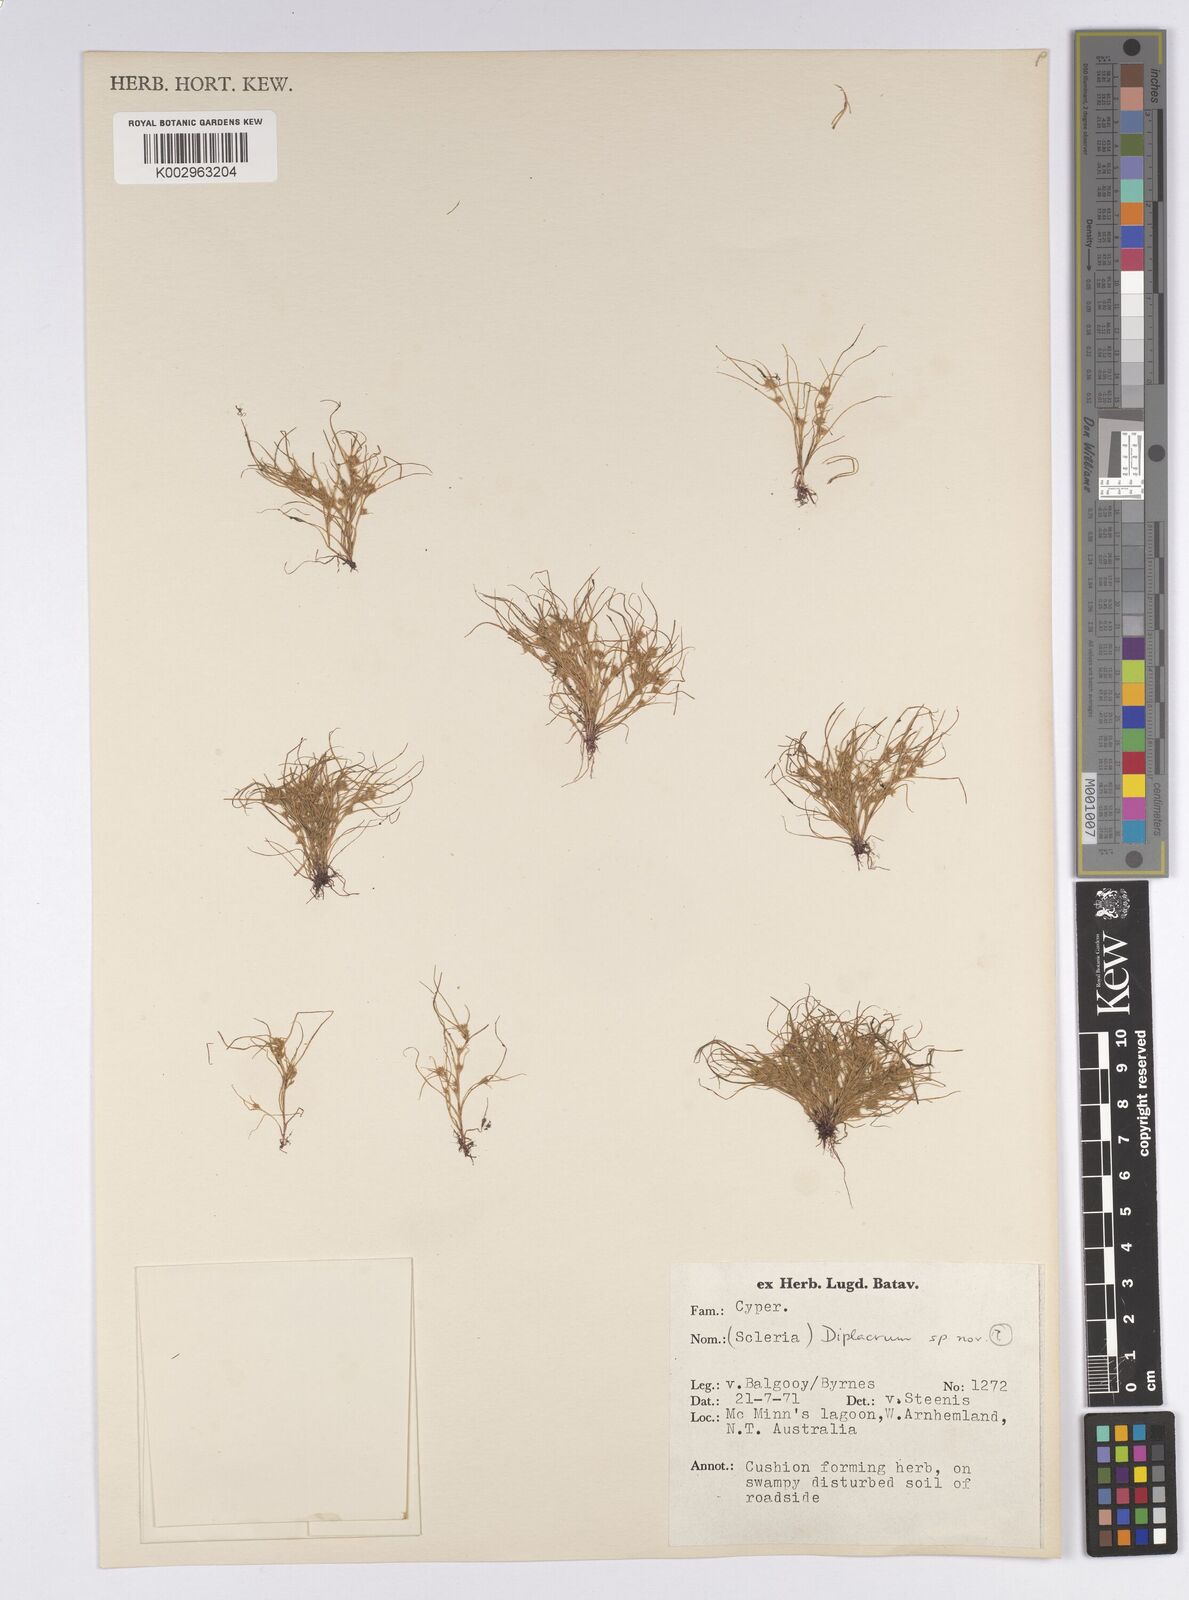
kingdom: Plantae
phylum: Tracheophyta
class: Liliopsida
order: Poales
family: Cyperaceae
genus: Diplacrum
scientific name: Diplacrum
